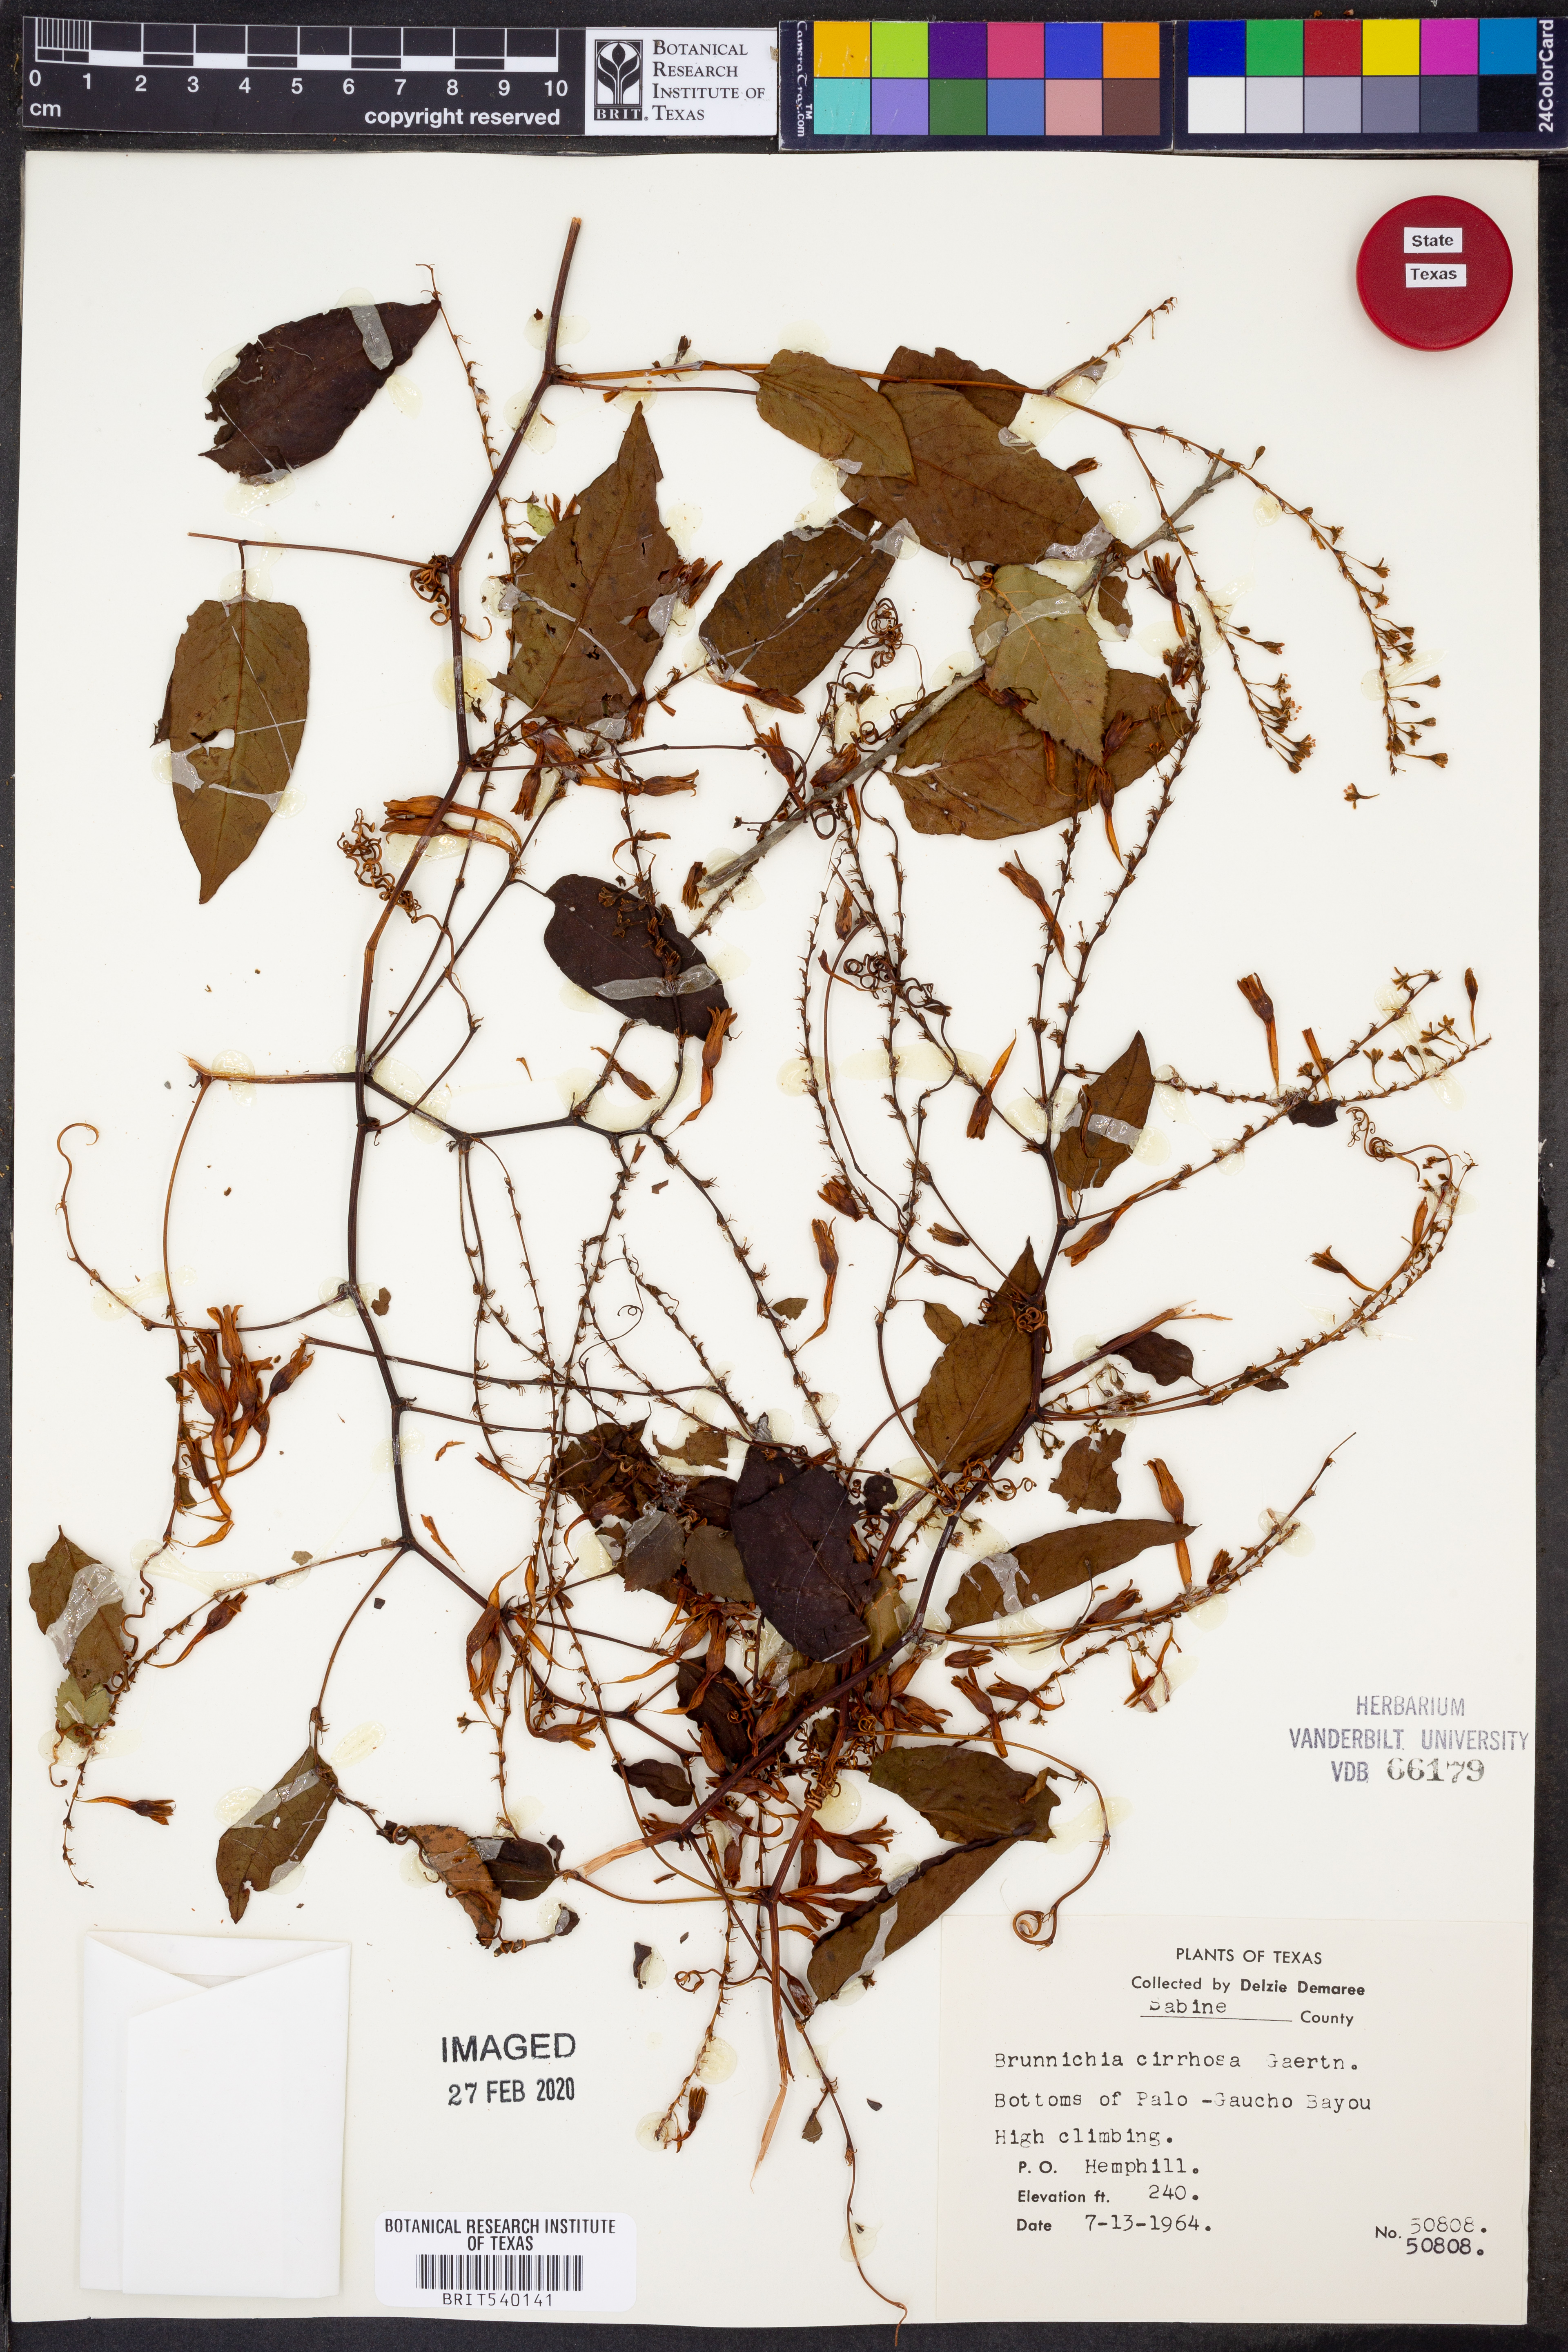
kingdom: Plantae
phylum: Tracheophyta
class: Magnoliopsida
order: Caryophyllales
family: Polygonaceae
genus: Brunnichia
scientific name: Brunnichia ovata
